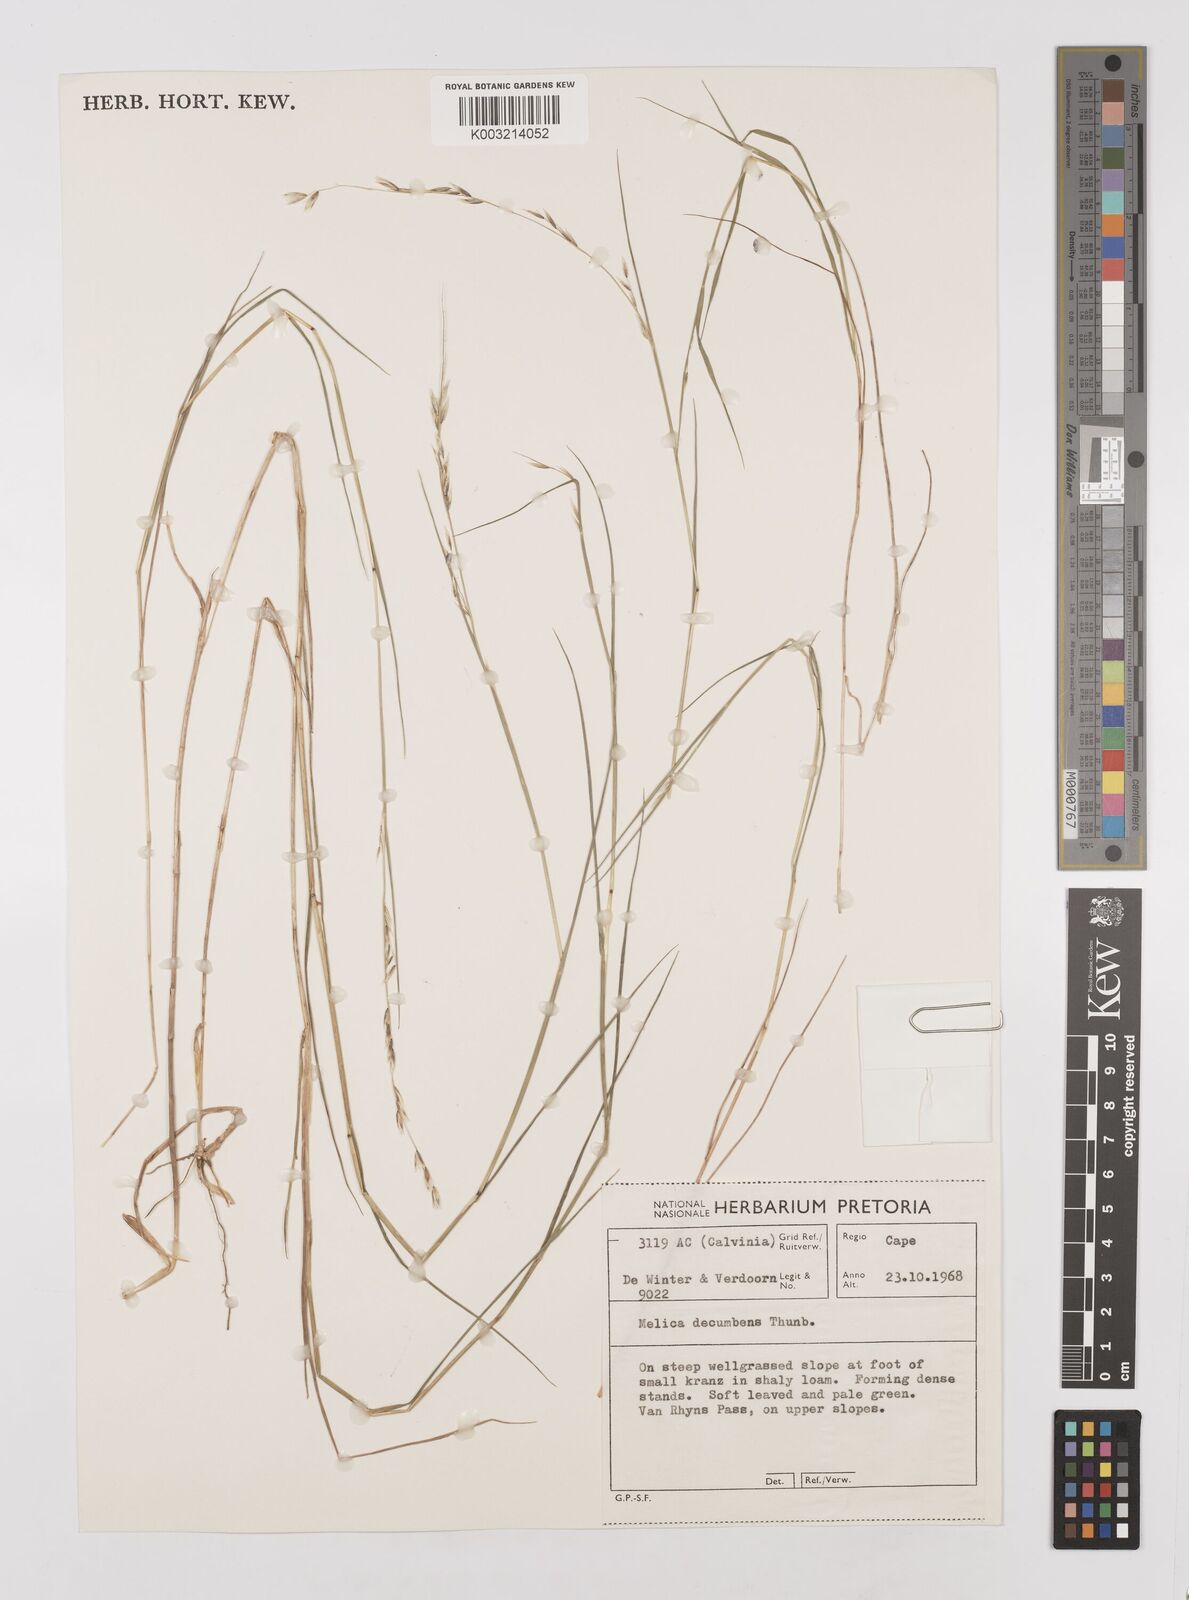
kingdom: Plantae
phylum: Tracheophyta
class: Liliopsida
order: Poales
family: Poaceae
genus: Melica
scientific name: Melica dendroides
